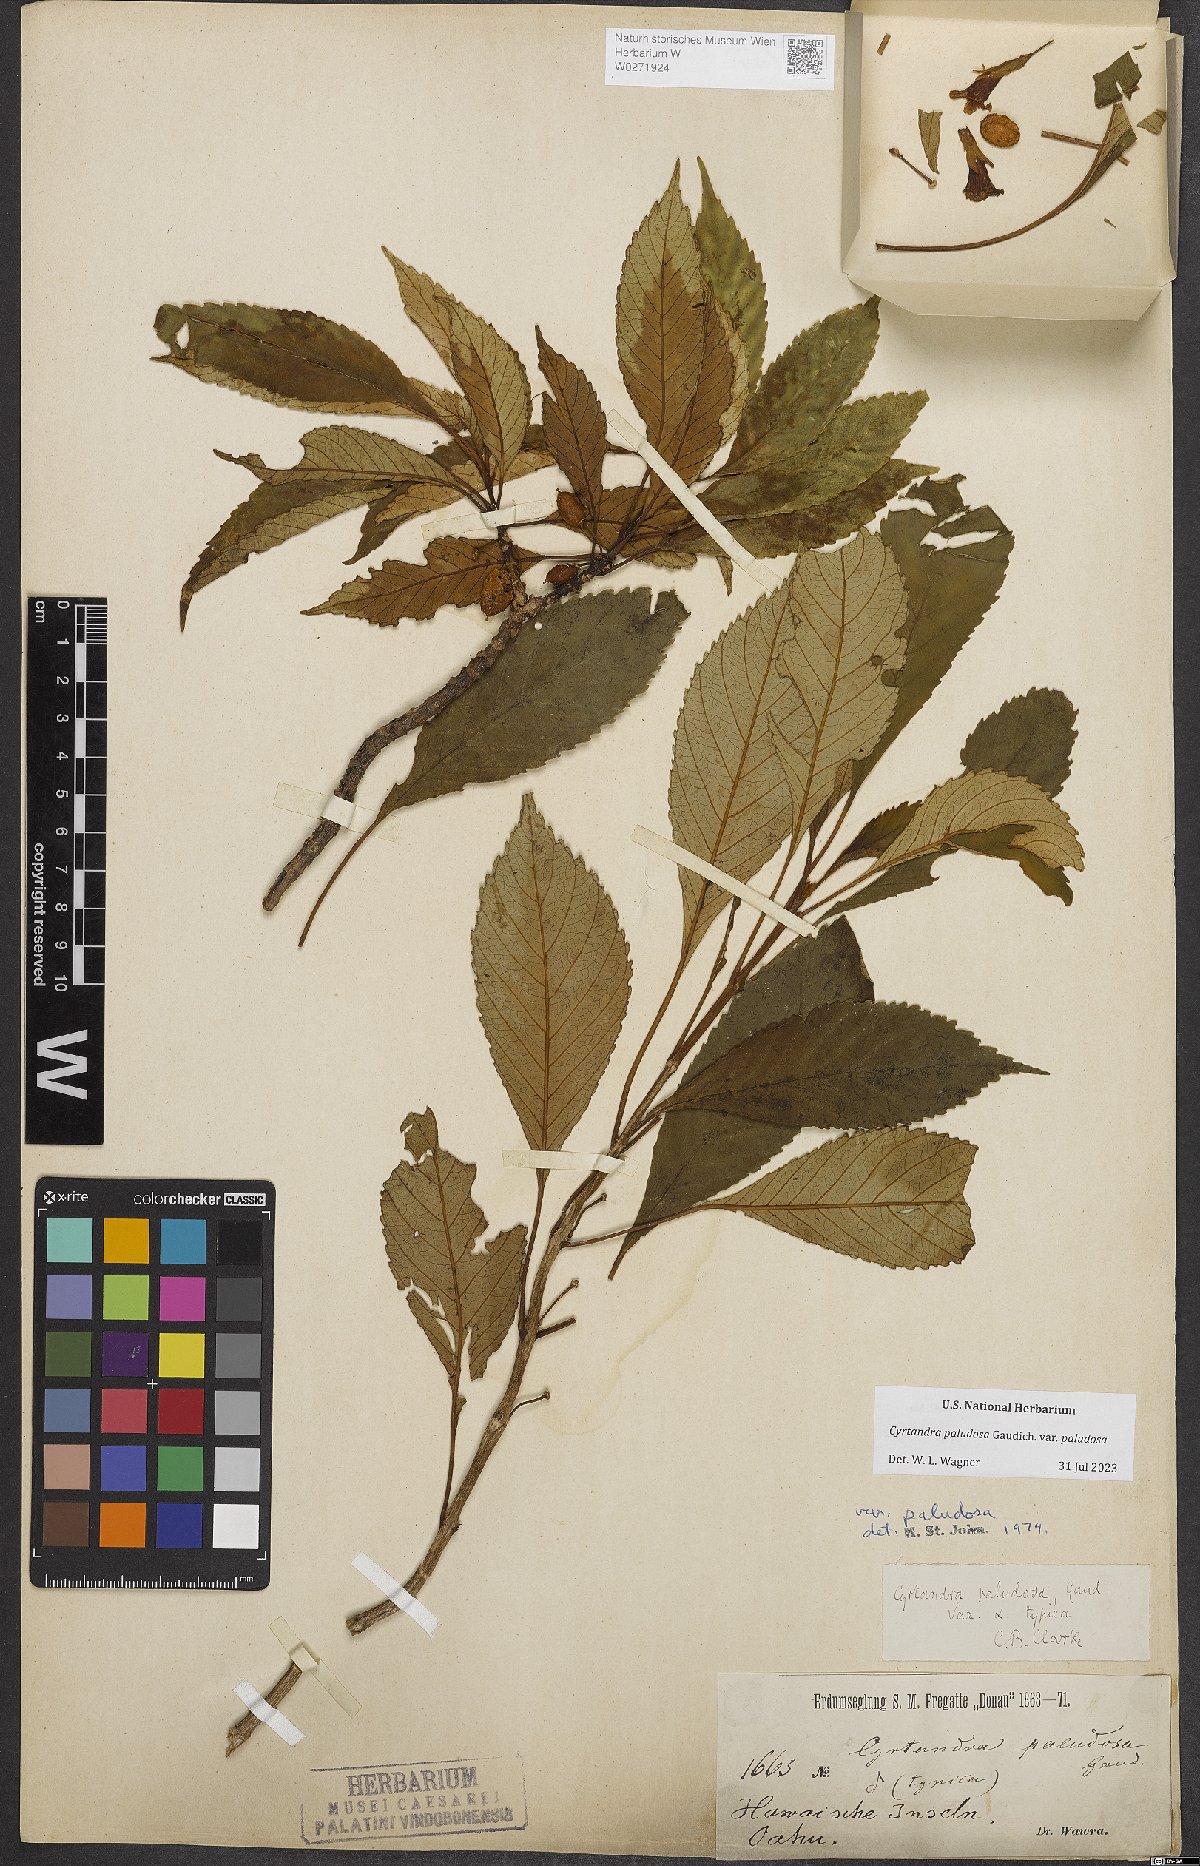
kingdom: Plantae
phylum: Tracheophyta
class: Magnoliopsida
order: Lamiales
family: Gesneriaceae
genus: Cyrtandra
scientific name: Cyrtandra paludosa
